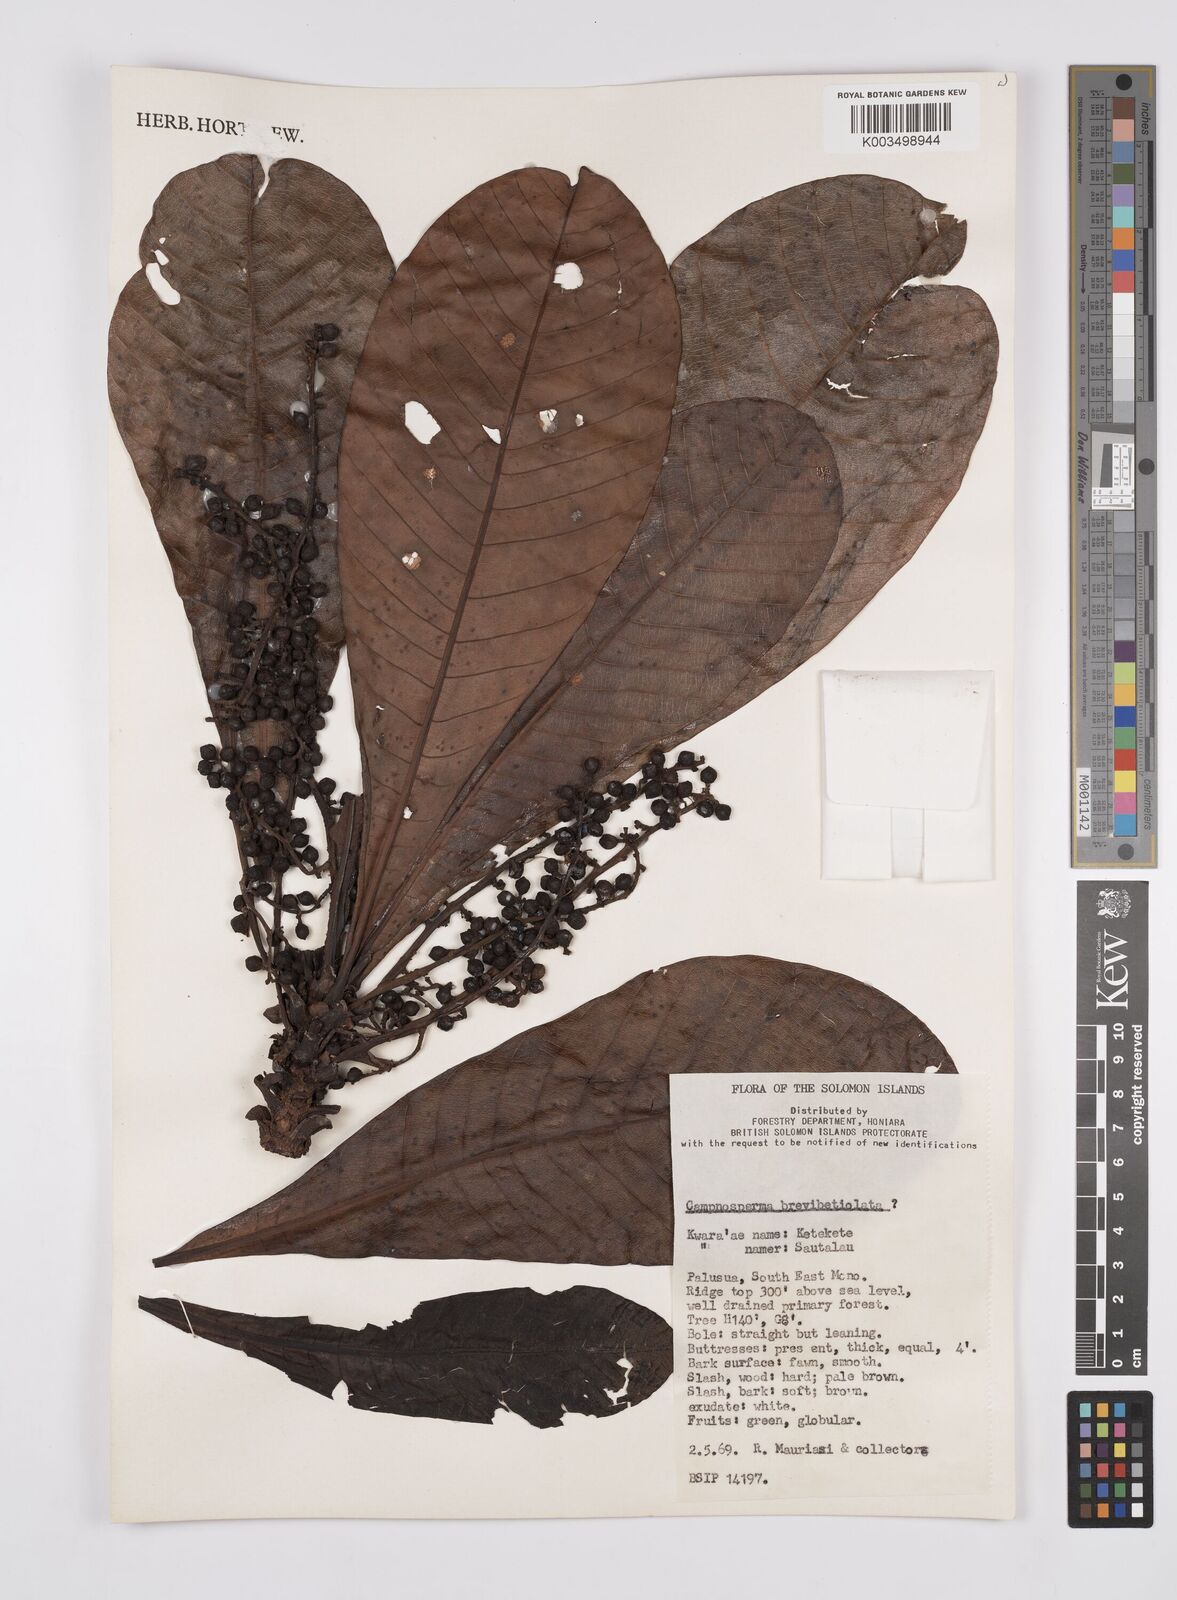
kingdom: Plantae
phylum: Tracheophyta
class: Magnoliopsida
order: Sapindales
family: Anacardiaceae
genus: Campnosperma
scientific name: Campnosperma brevipetiolatum
